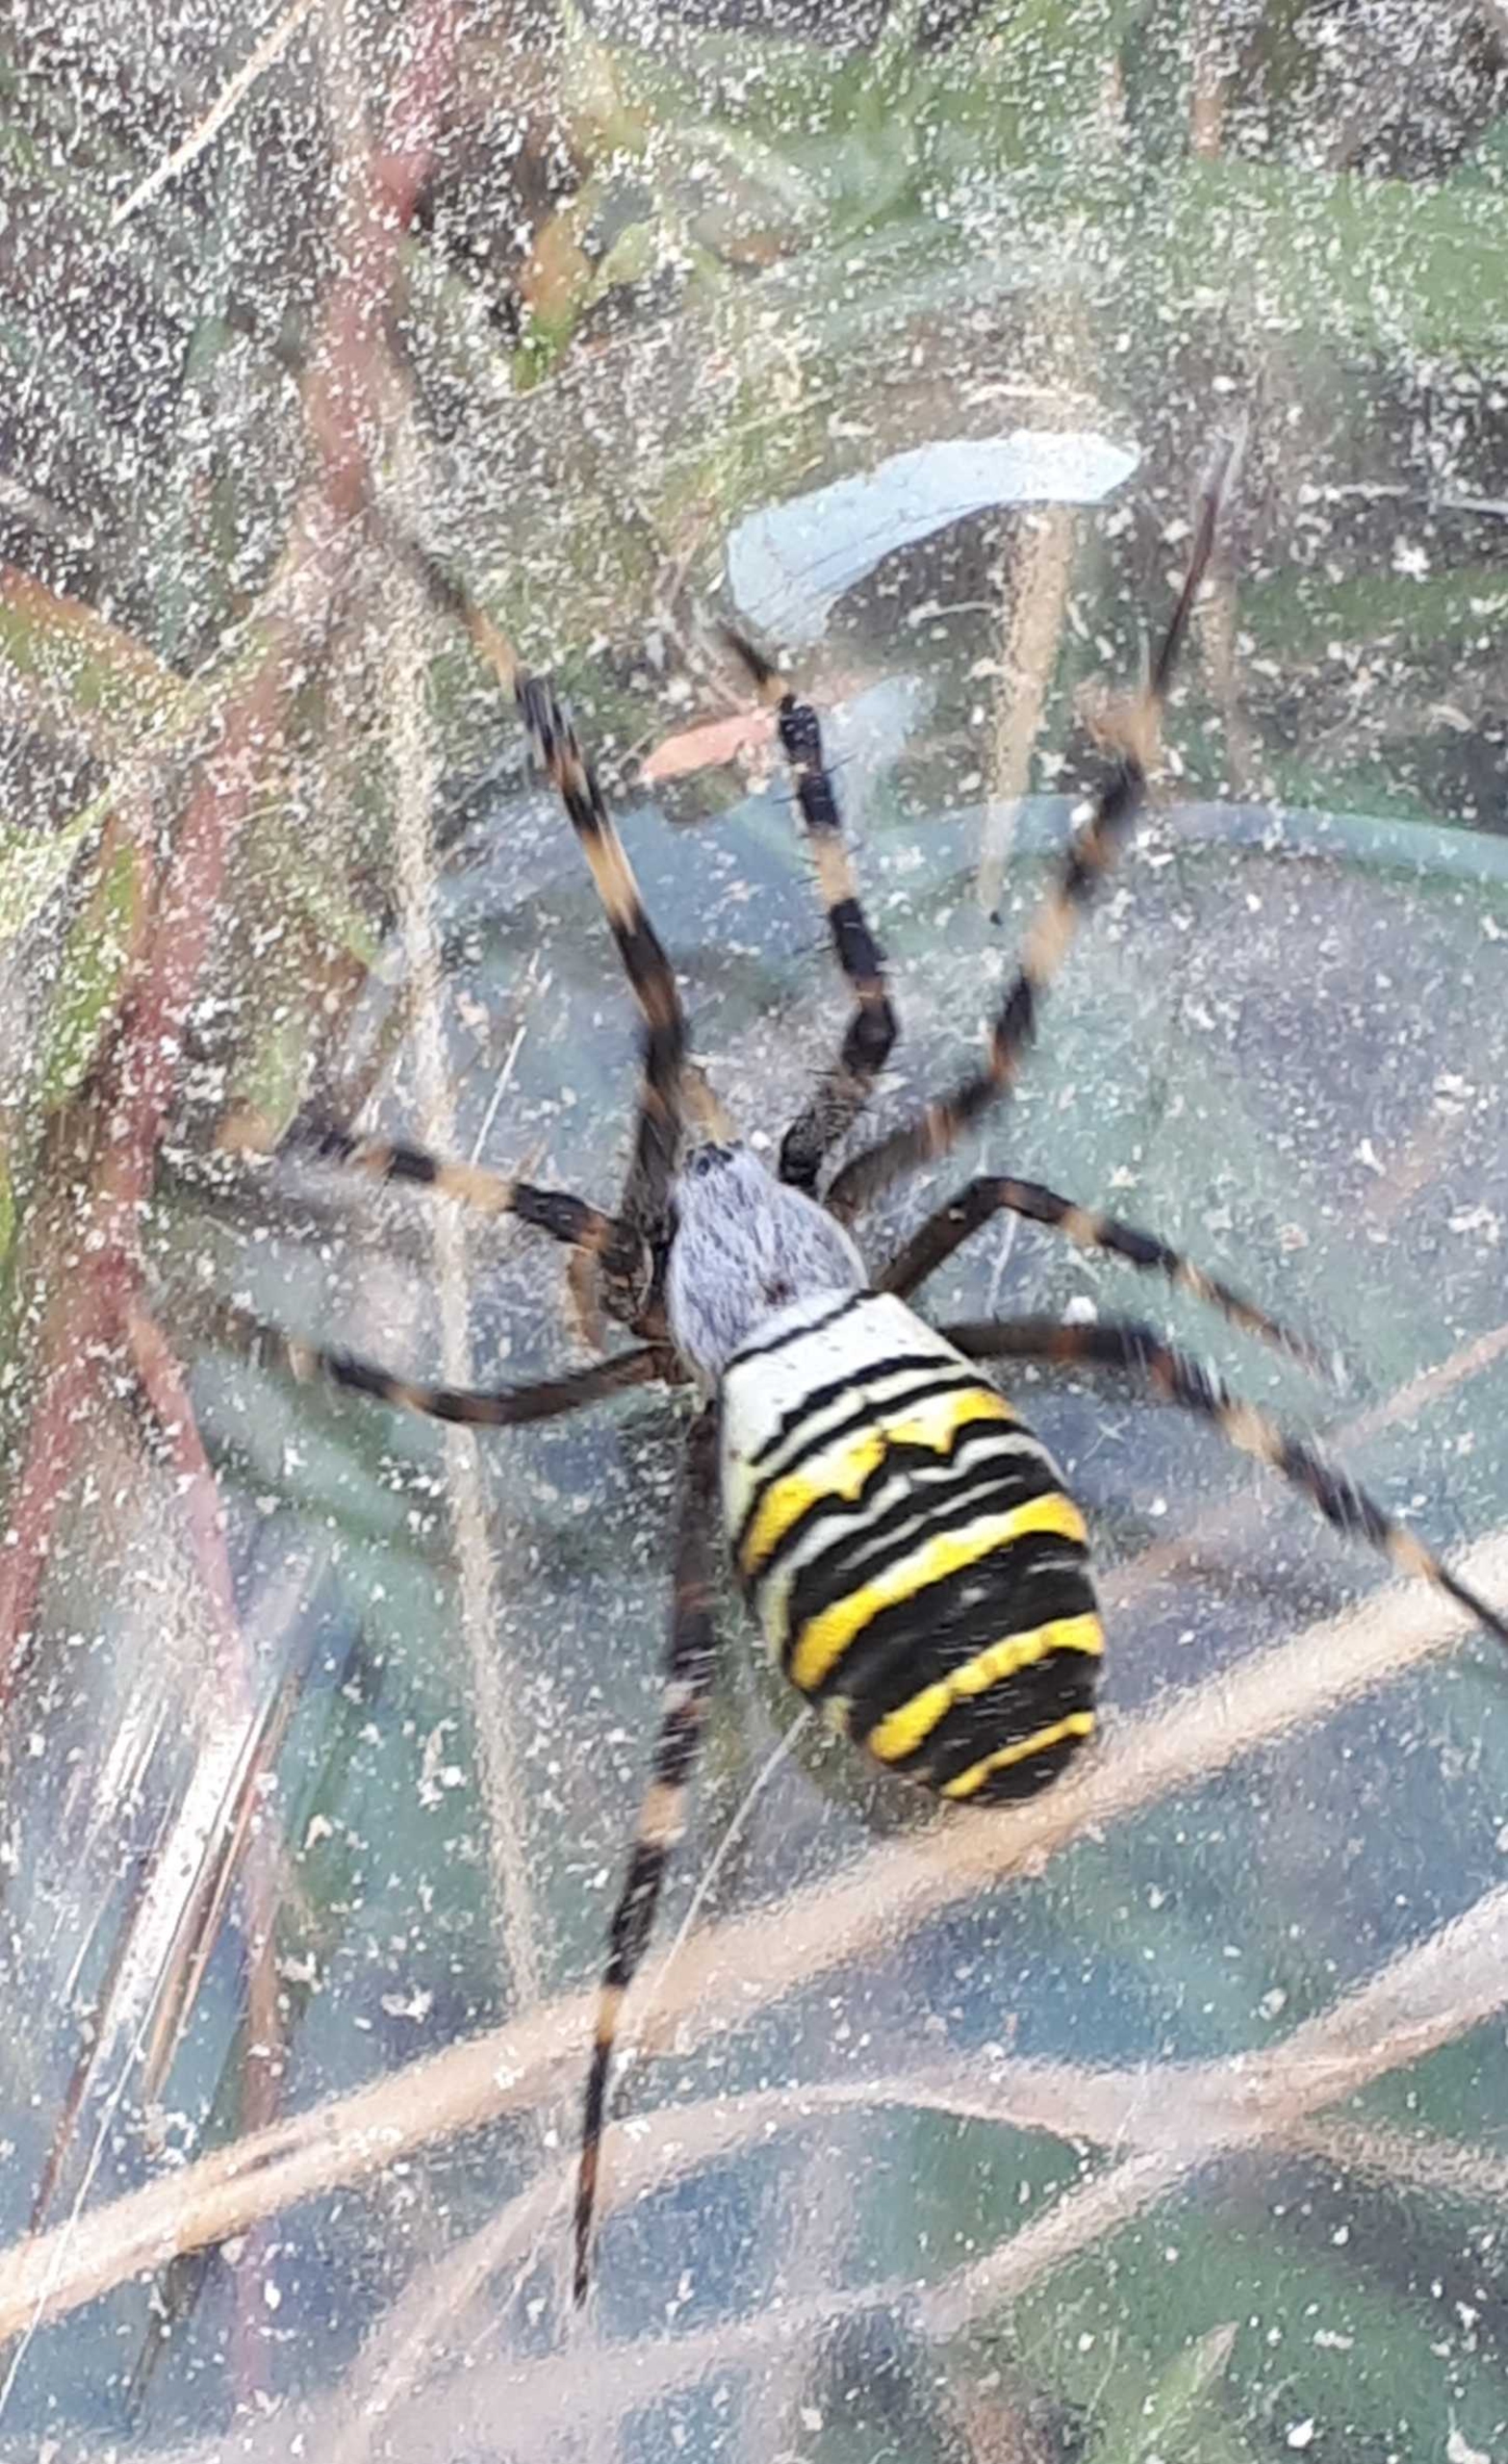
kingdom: Animalia
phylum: Arthropoda
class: Arachnida
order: Araneae
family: Araneidae
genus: Argiope
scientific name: Argiope bruennichi
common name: Hvepseedderkop
